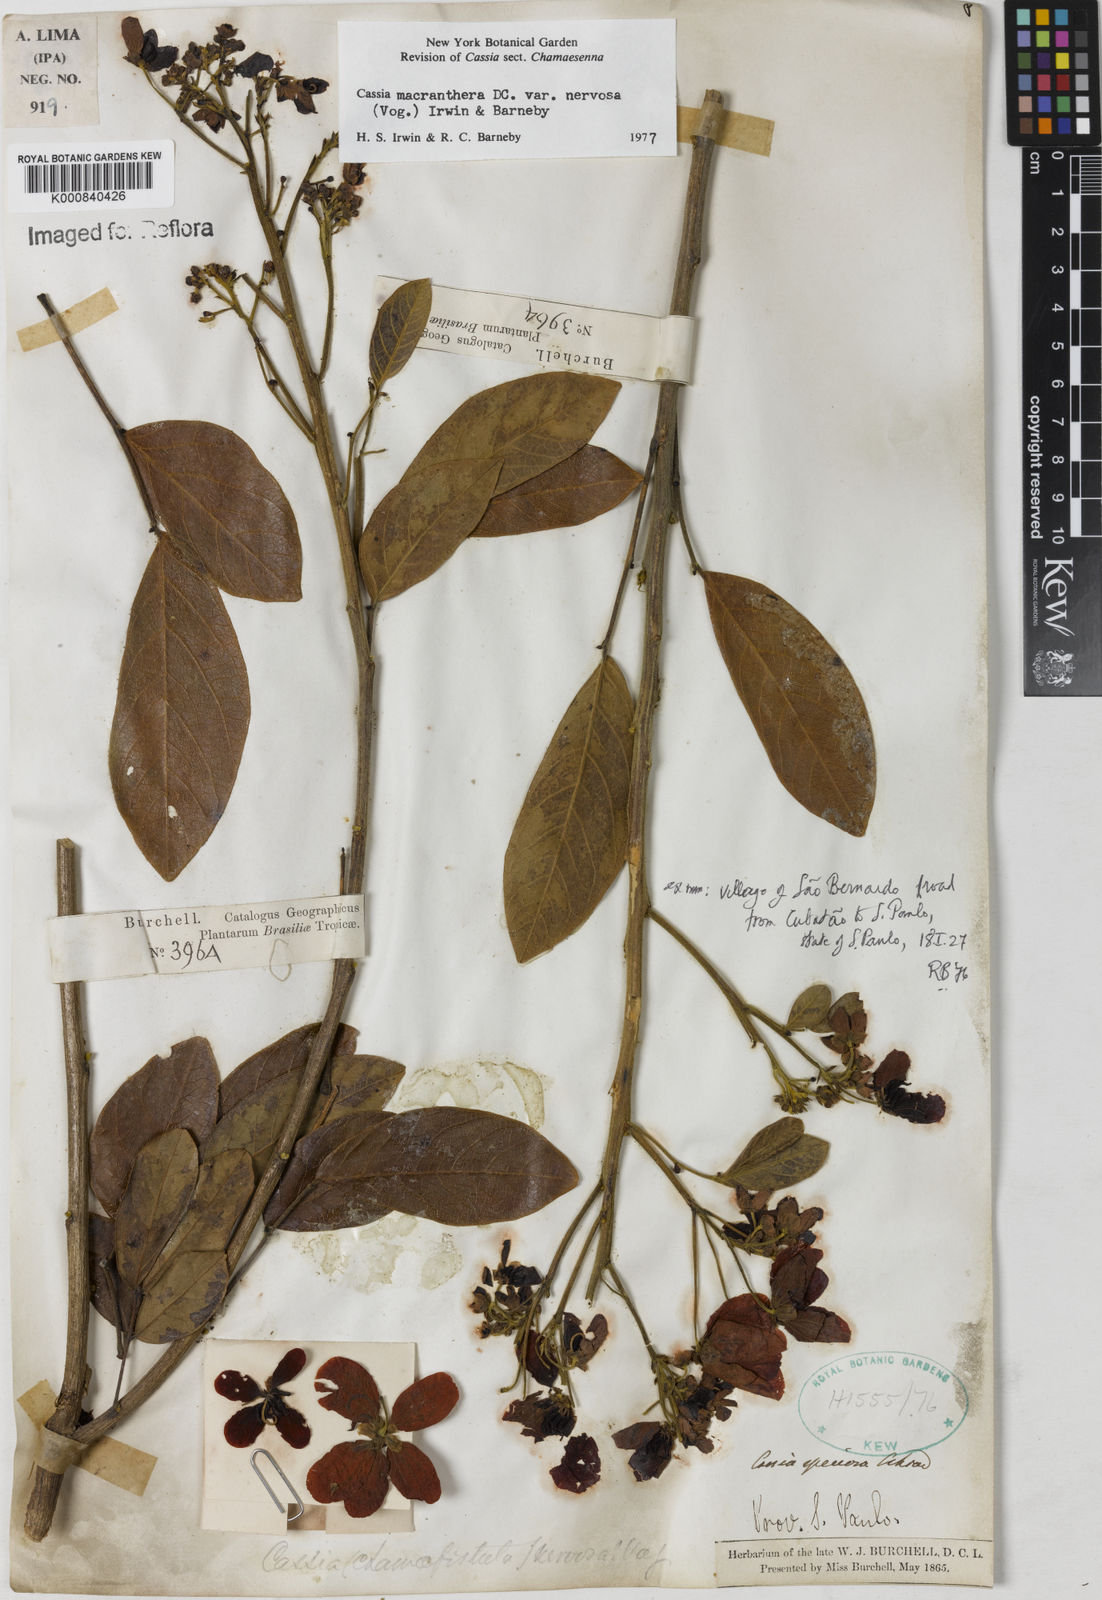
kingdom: Plantae
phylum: Tracheophyta
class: Magnoliopsida
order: Fabales
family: Fabaceae
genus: Senna
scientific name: Senna macranthera
